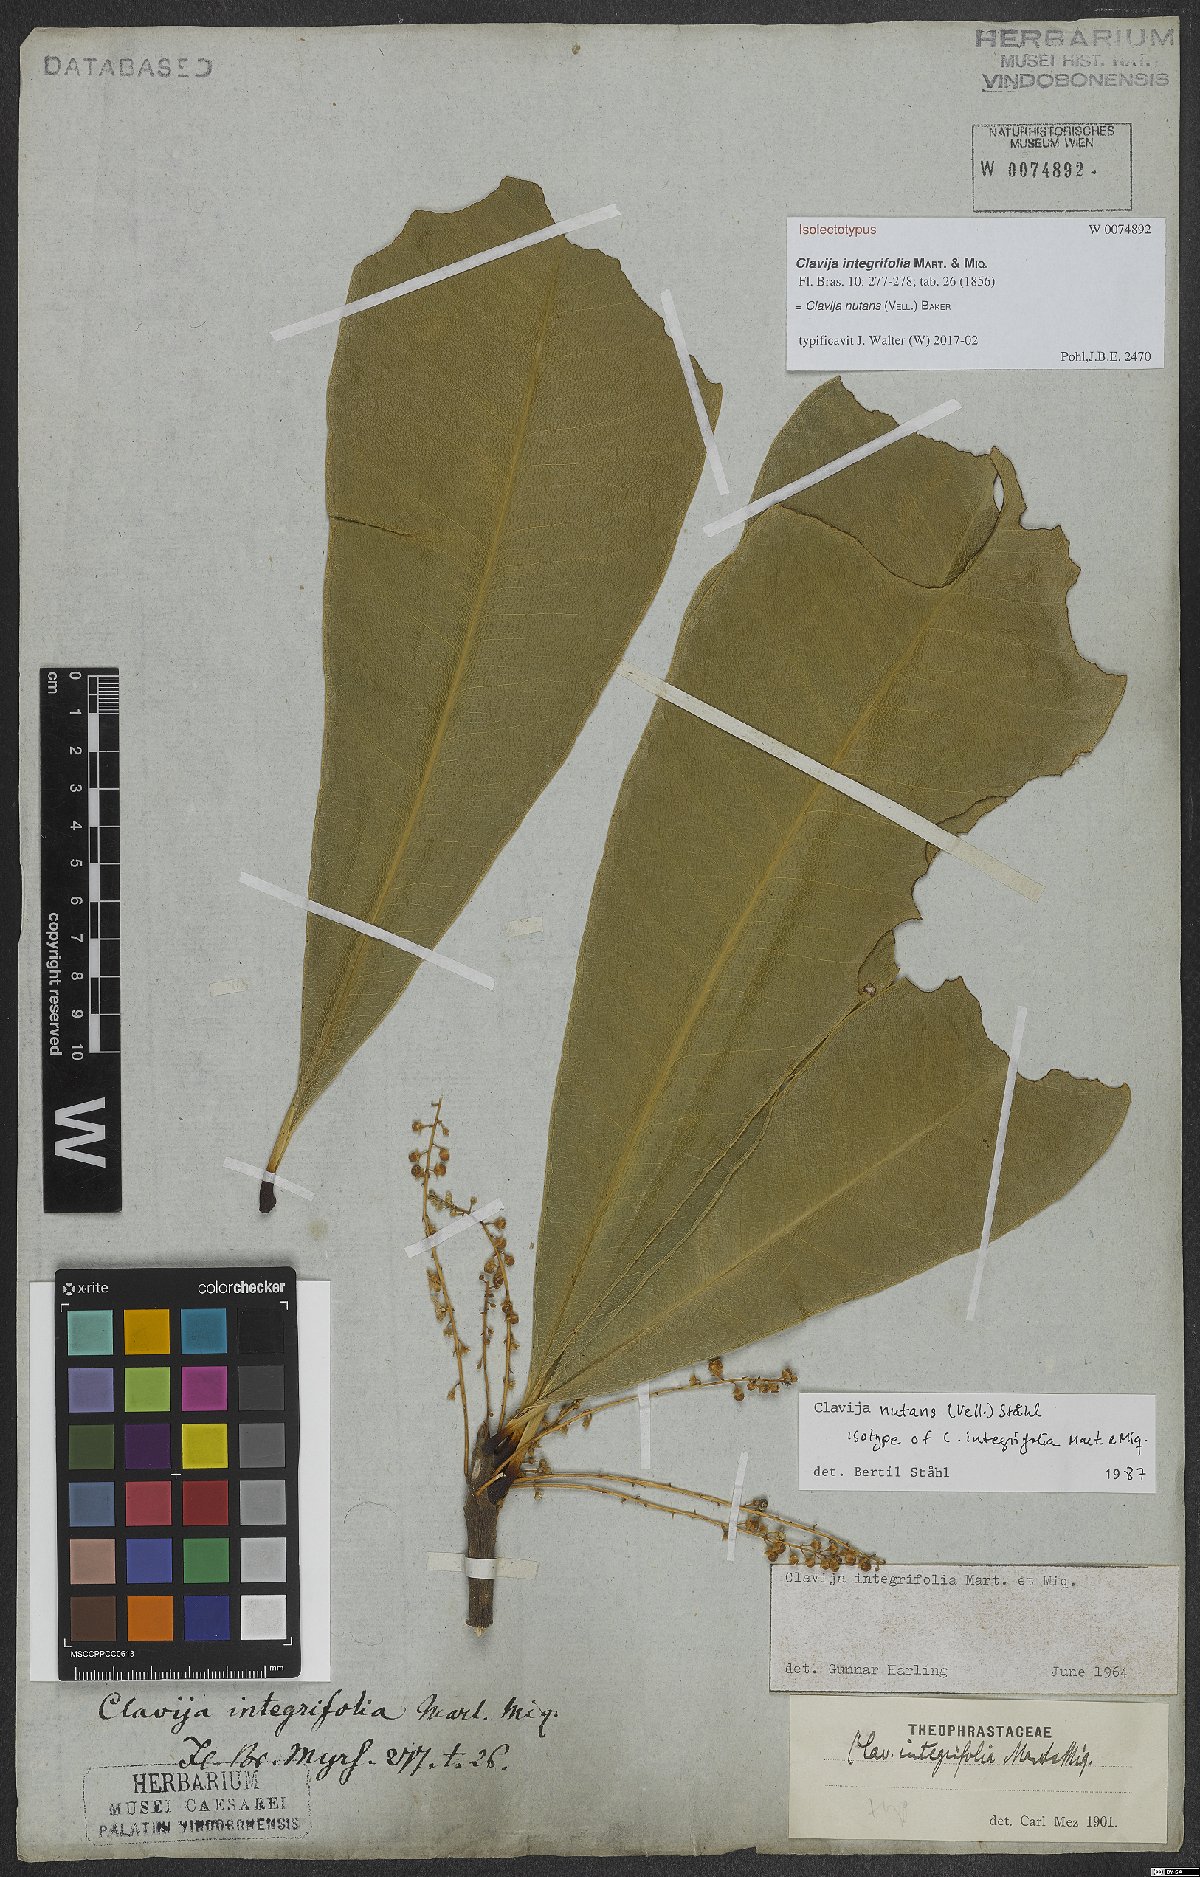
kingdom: Plantae
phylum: Tracheophyta
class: Magnoliopsida
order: Ericales
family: Primulaceae
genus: Clavija
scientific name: Clavija nutans
